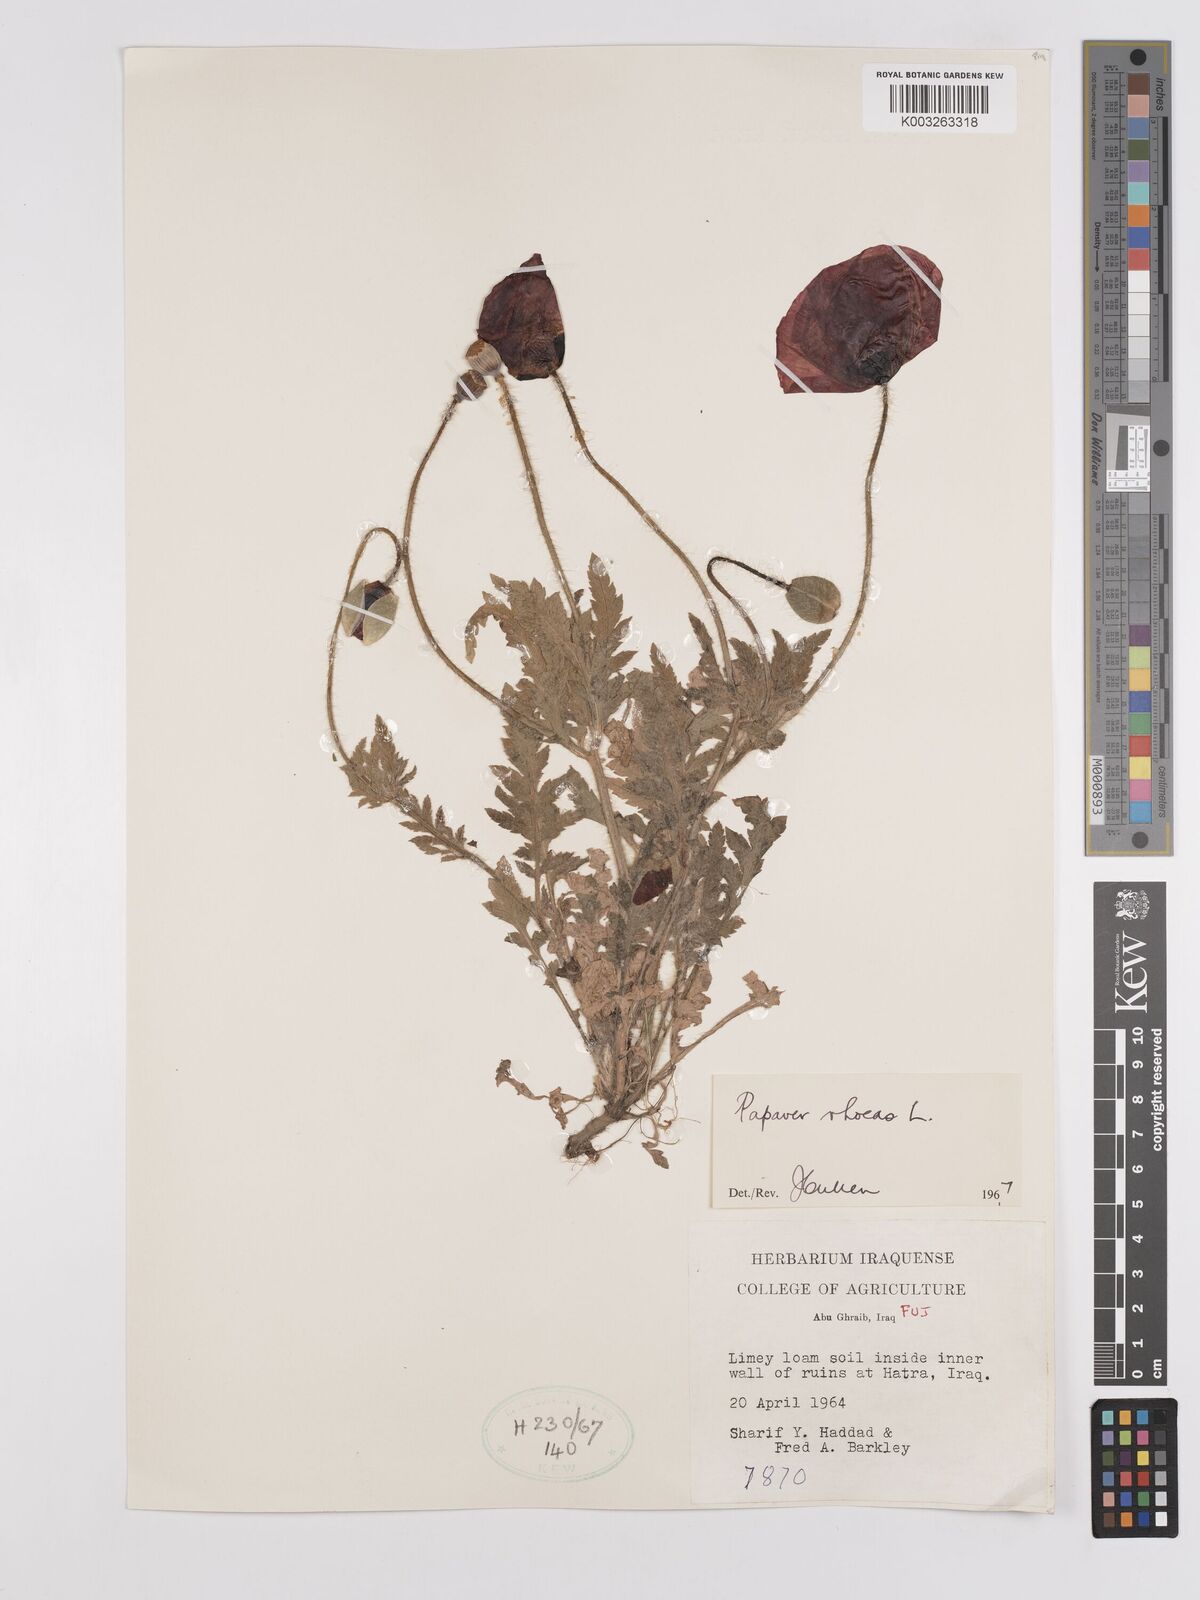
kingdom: Plantae
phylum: Tracheophyta
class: Magnoliopsida
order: Ranunculales
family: Papaveraceae
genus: Papaver
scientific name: Papaver rhoeas
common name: Corn poppy
